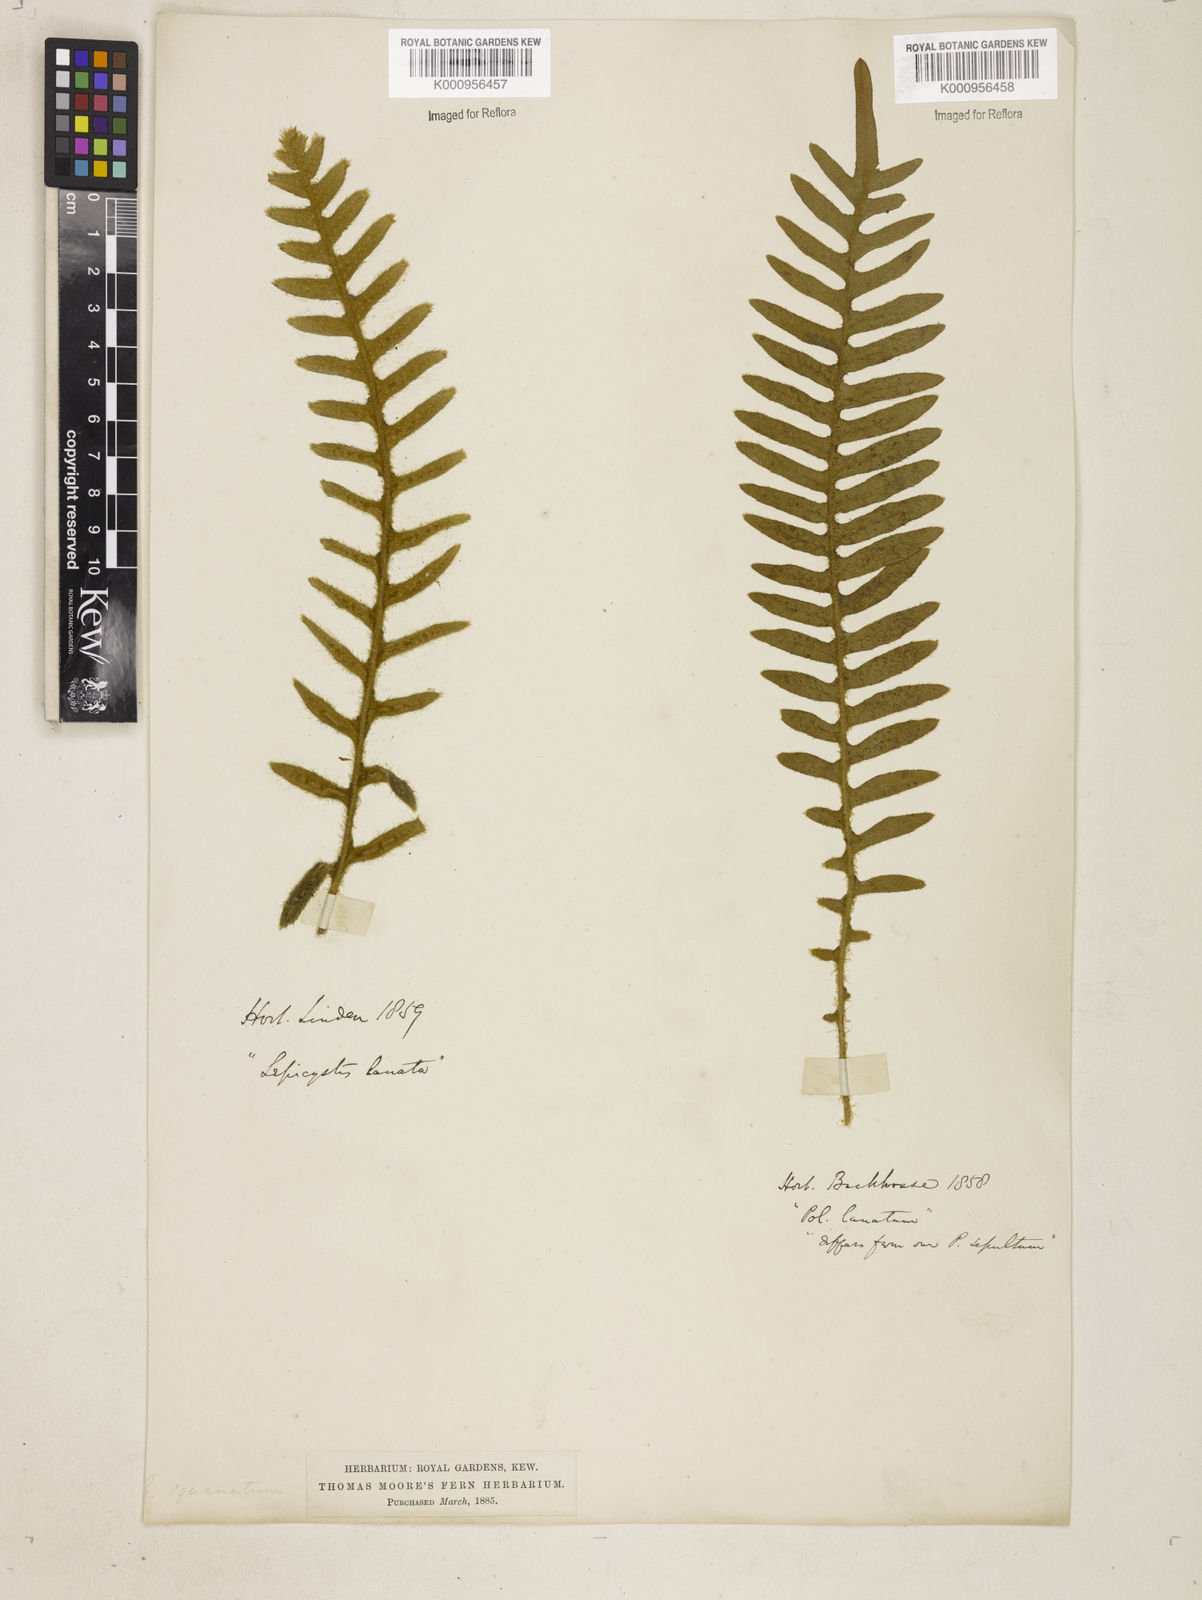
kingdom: Plantae
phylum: Tracheophyta
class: Polypodiopsida
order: Polypodiales
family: Polypodiaceae
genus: Polypodium
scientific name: Polypodium
